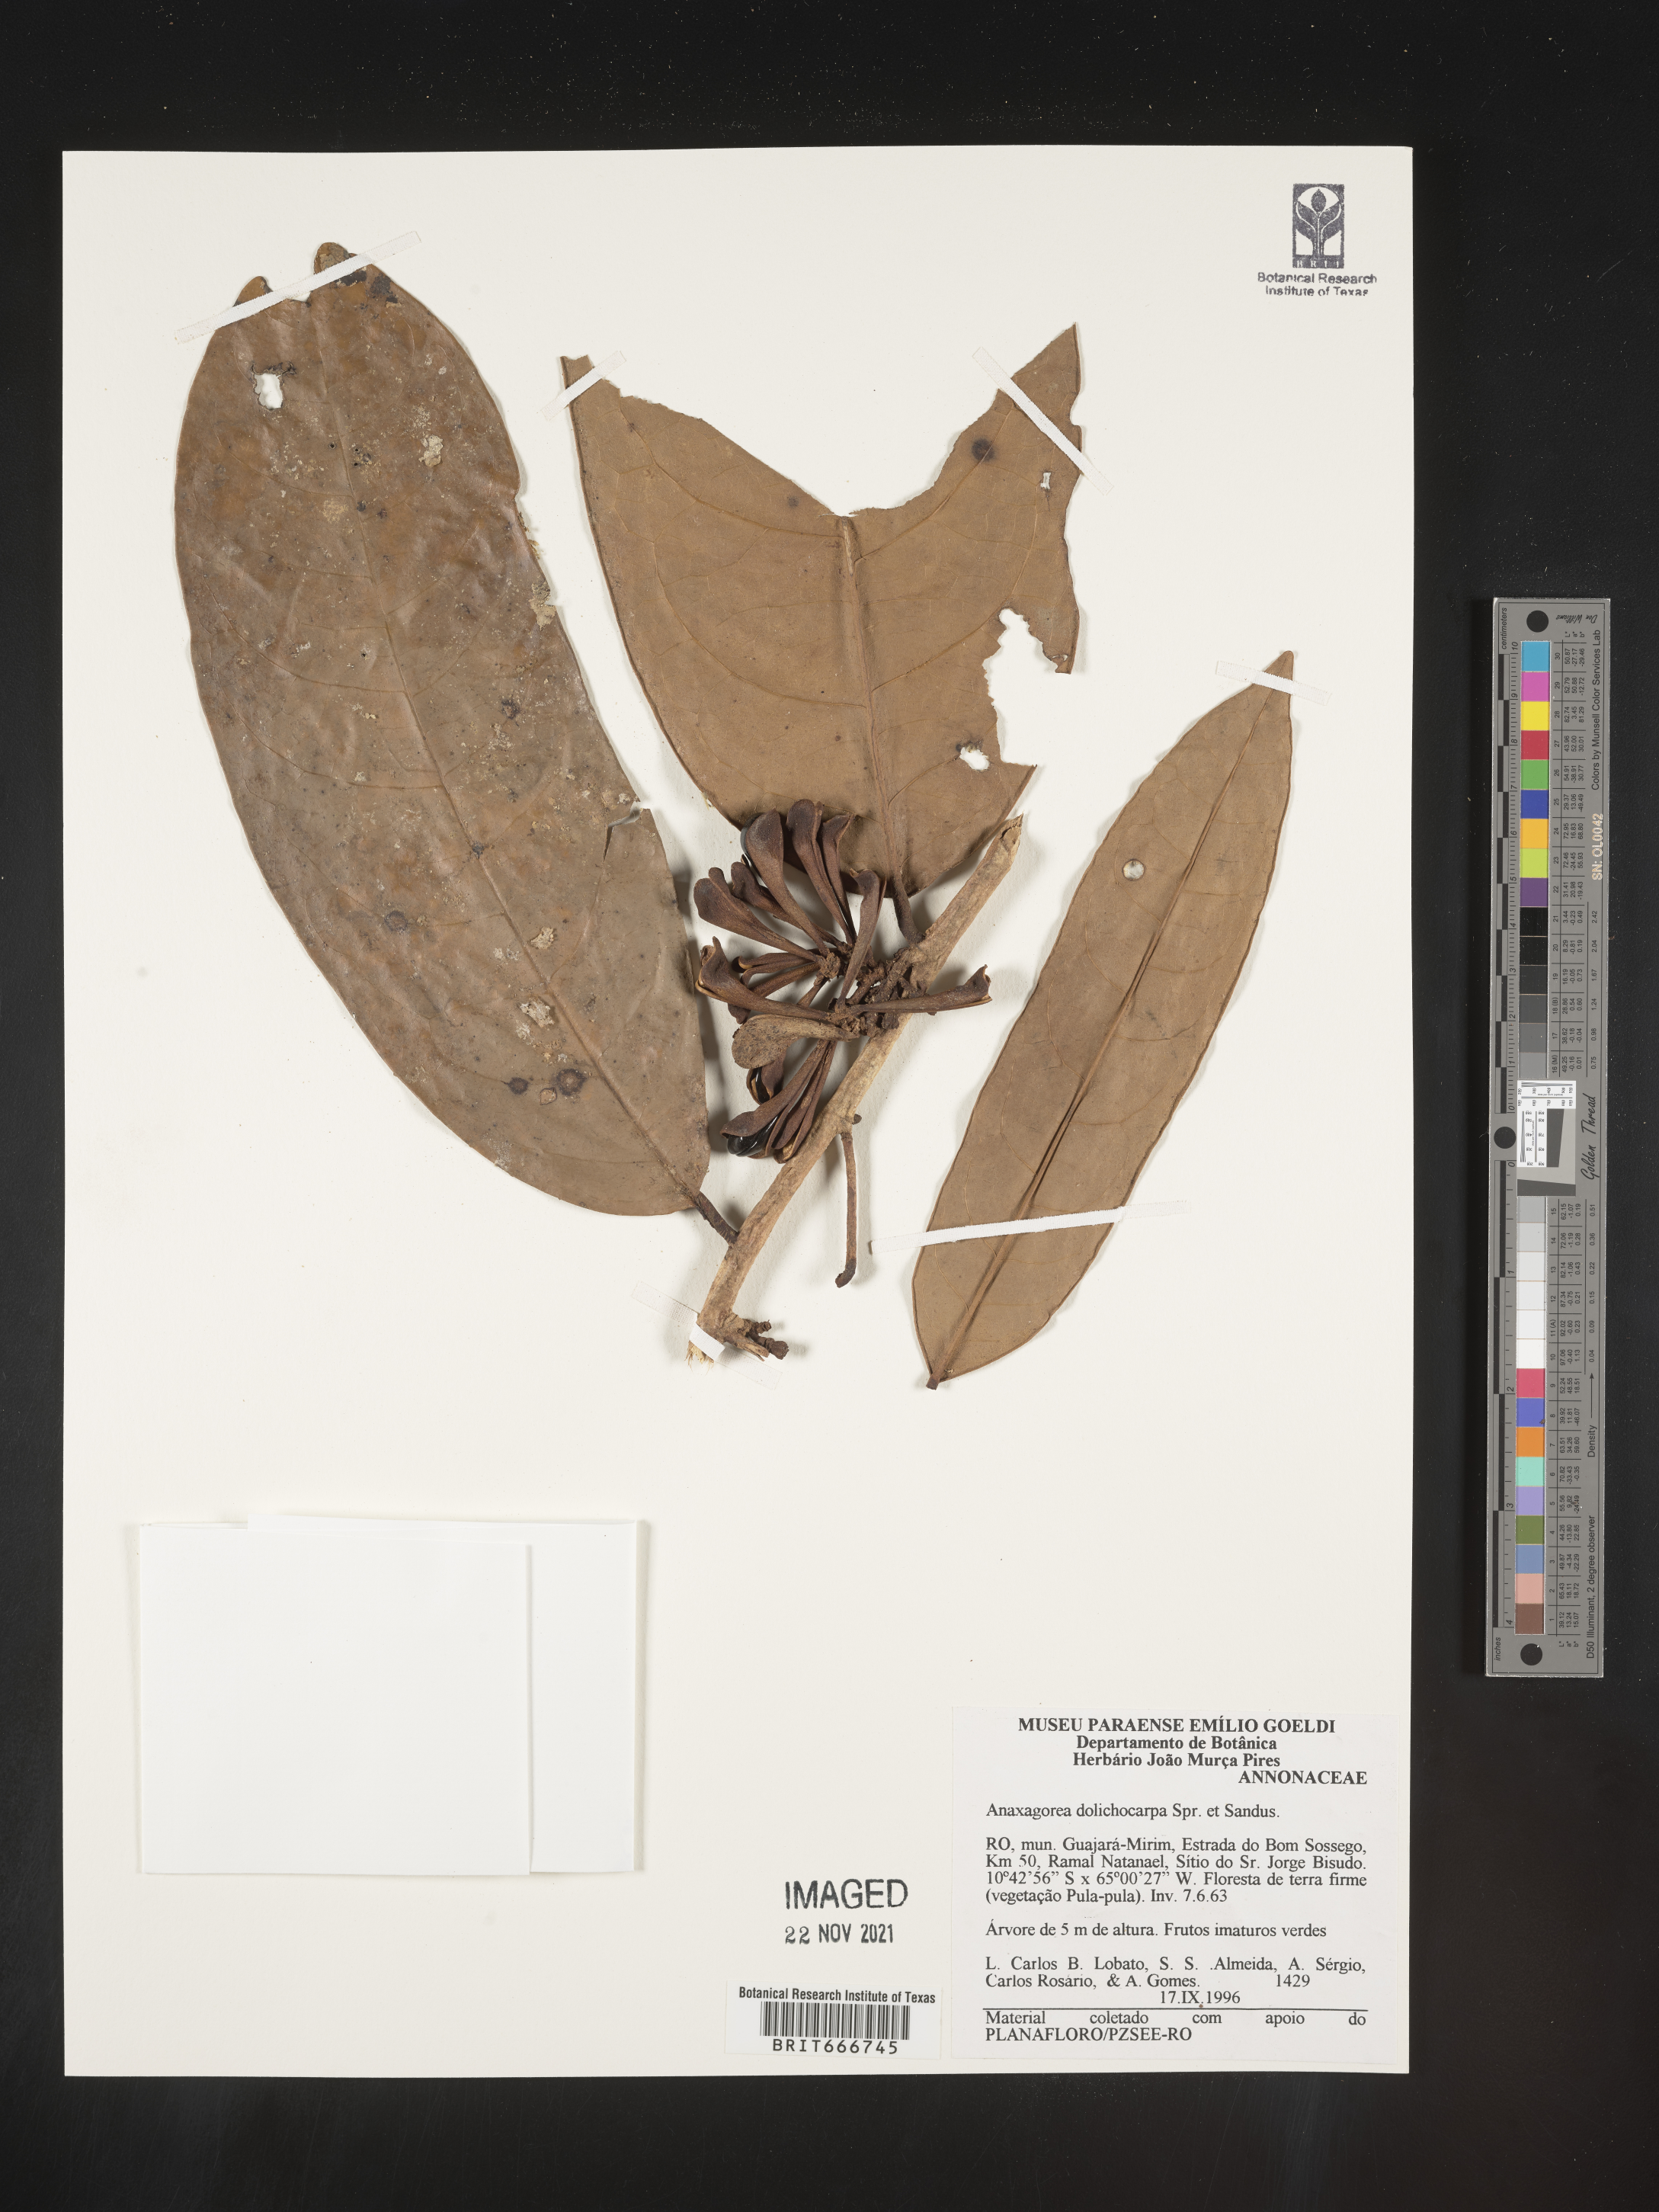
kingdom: Plantae
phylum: Tracheophyta
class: Magnoliopsida
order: Magnoliales
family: Annonaceae
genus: Anaxagorea
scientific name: Anaxagorea
